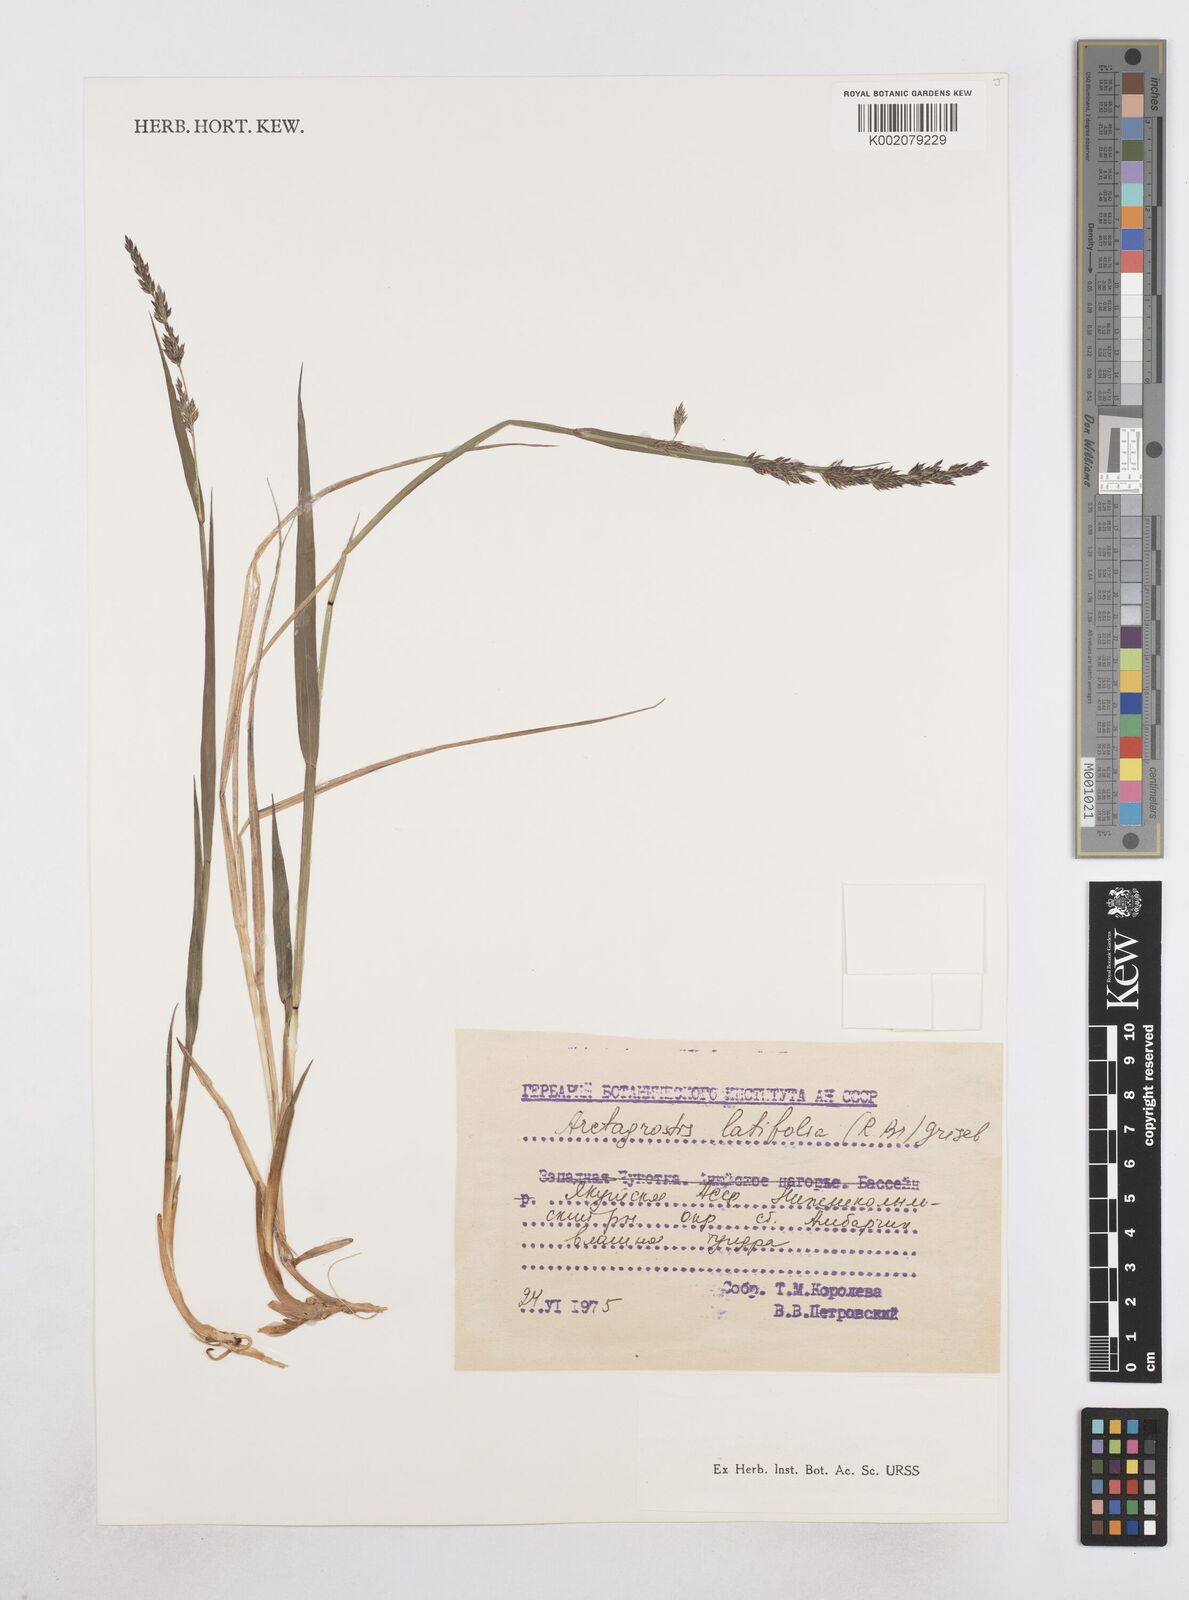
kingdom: Plantae
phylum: Tracheophyta
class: Liliopsida
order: Poales
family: Poaceae
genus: Arctagrostis
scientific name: Arctagrostis latifolia
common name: Arctic grass
